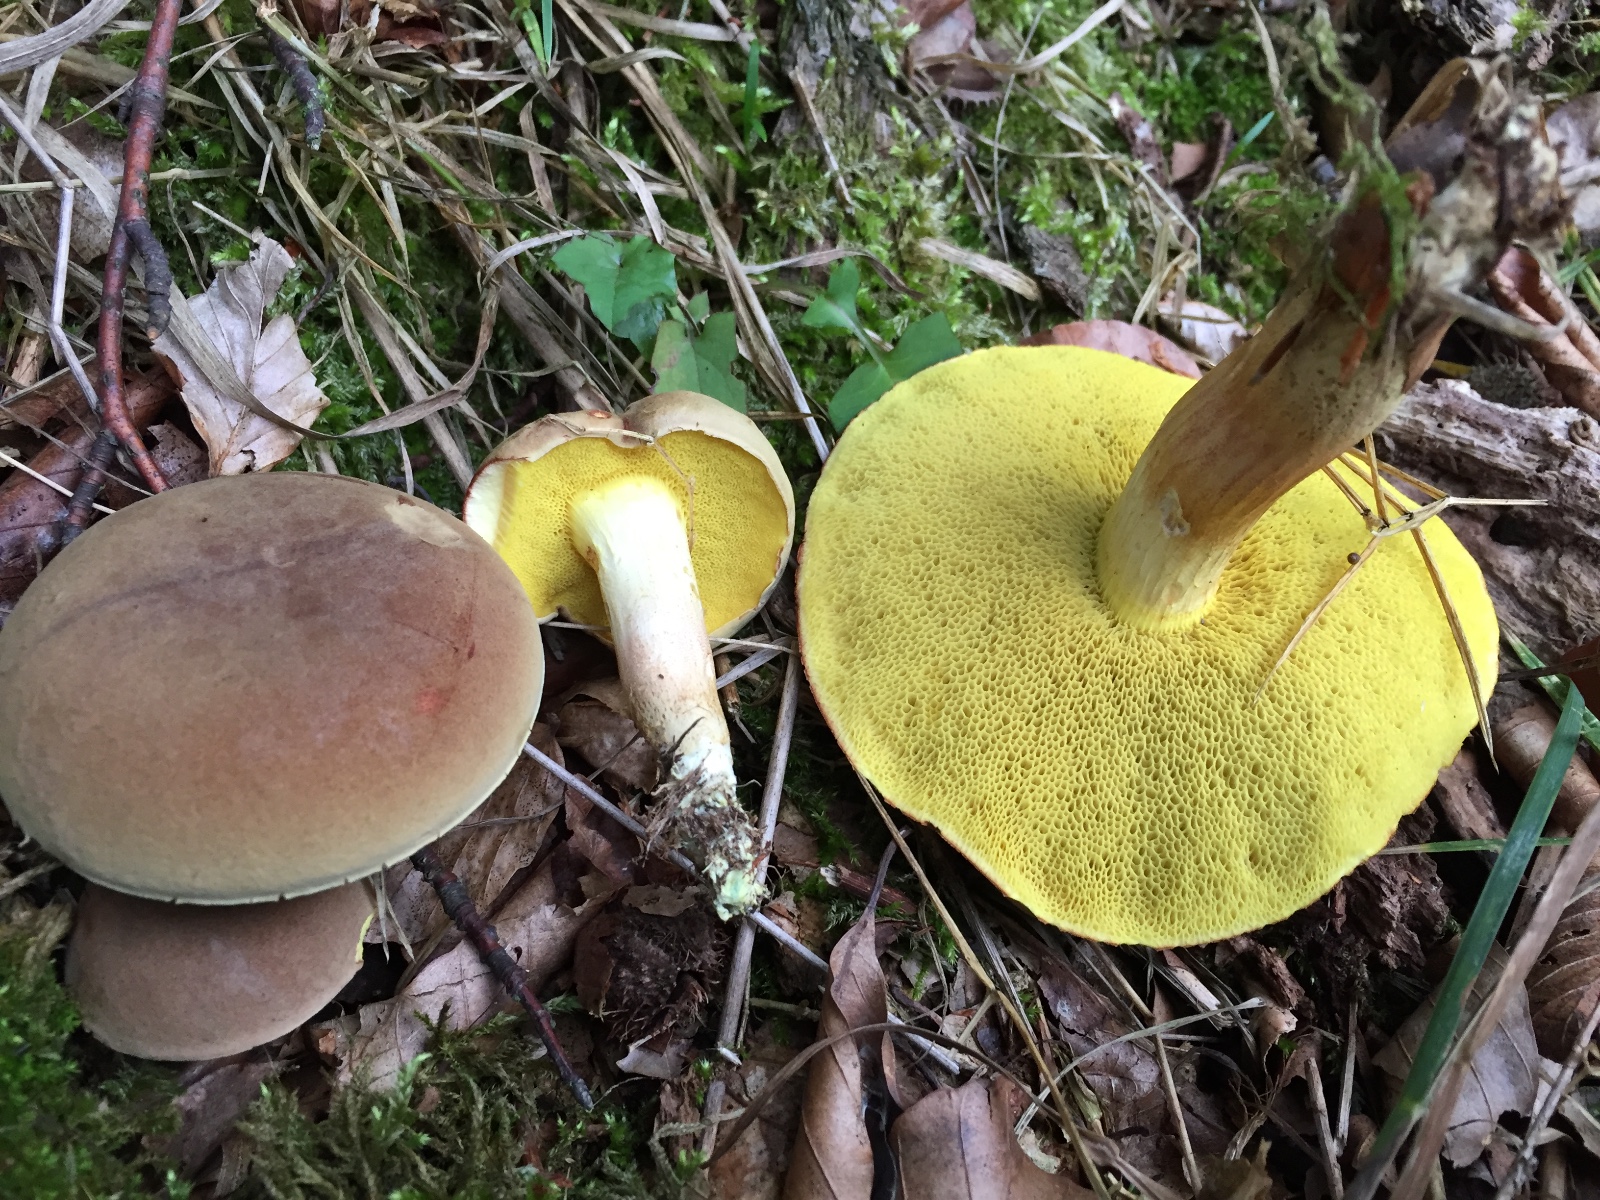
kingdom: Fungi
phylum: Basidiomycota
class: Agaricomycetes
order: Boletales
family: Boletaceae
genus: Xerocomus
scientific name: Xerocomus subtomentosus
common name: filtet rørhat
